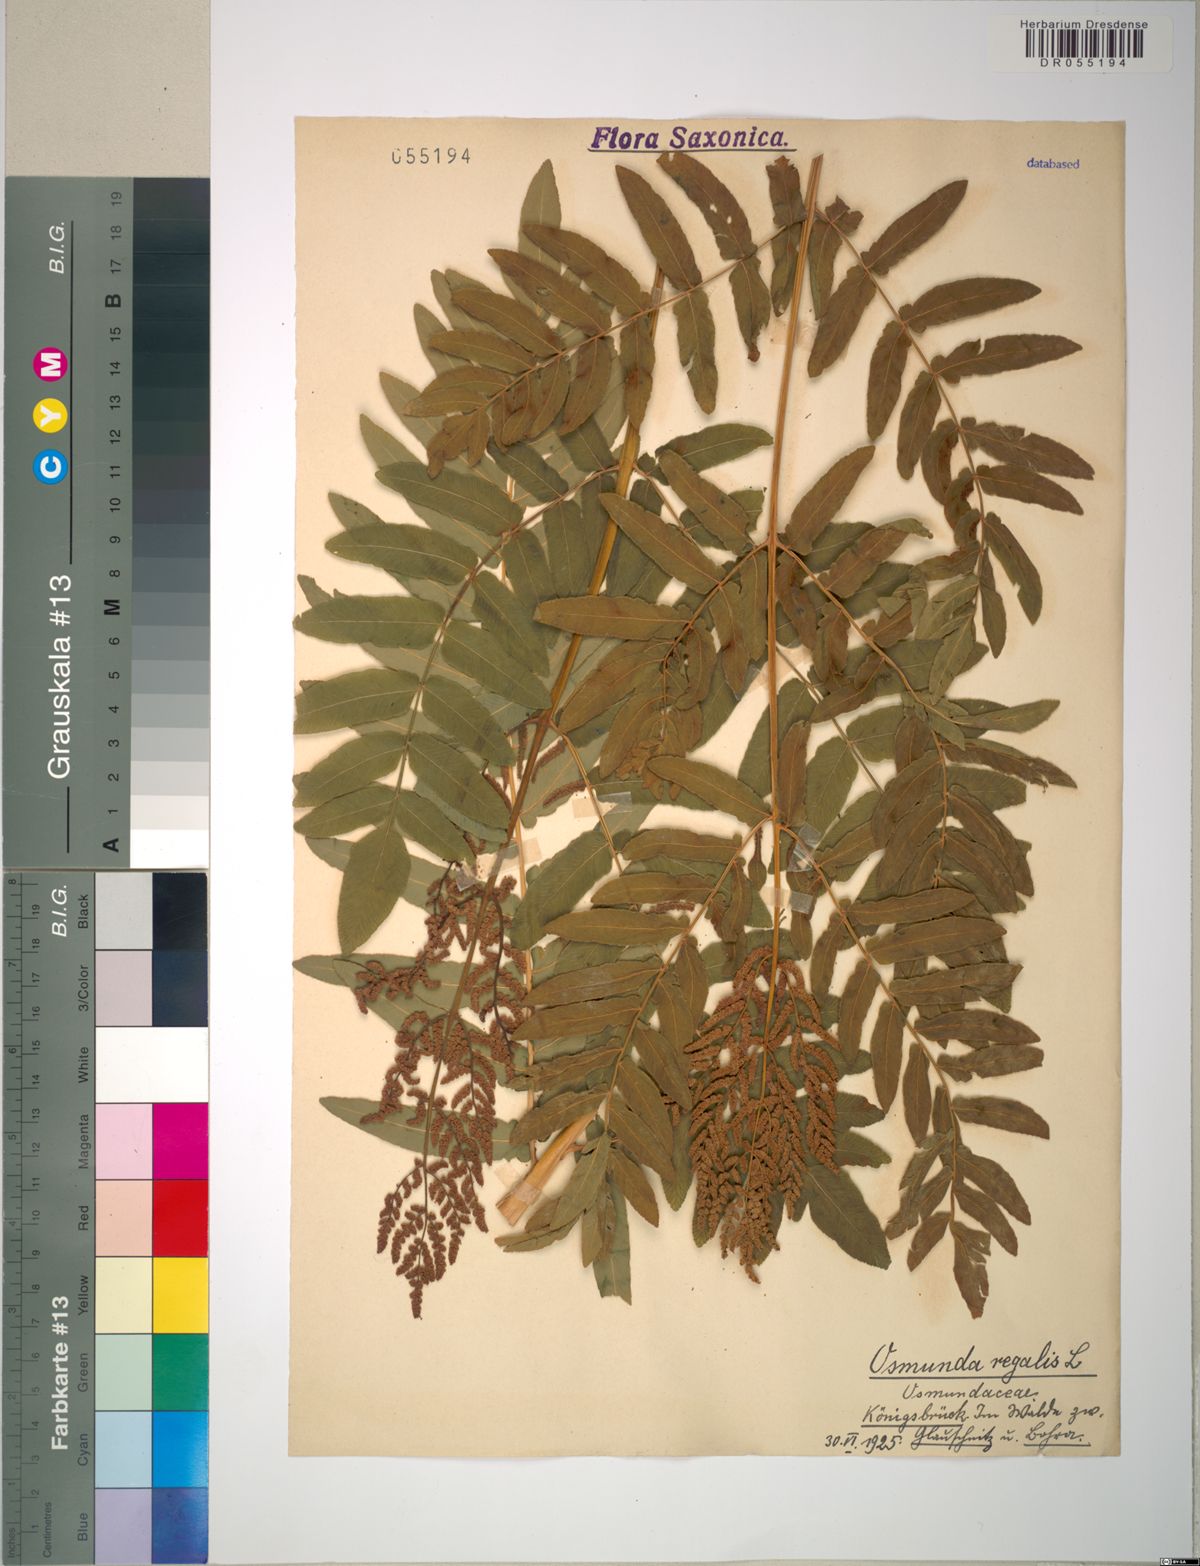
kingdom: Plantae
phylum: Tracheophyta
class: Polypodiopsida
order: Osmundales
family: Osmundaceae
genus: Osmunda
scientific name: Osmunda regalis
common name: Royal fern
